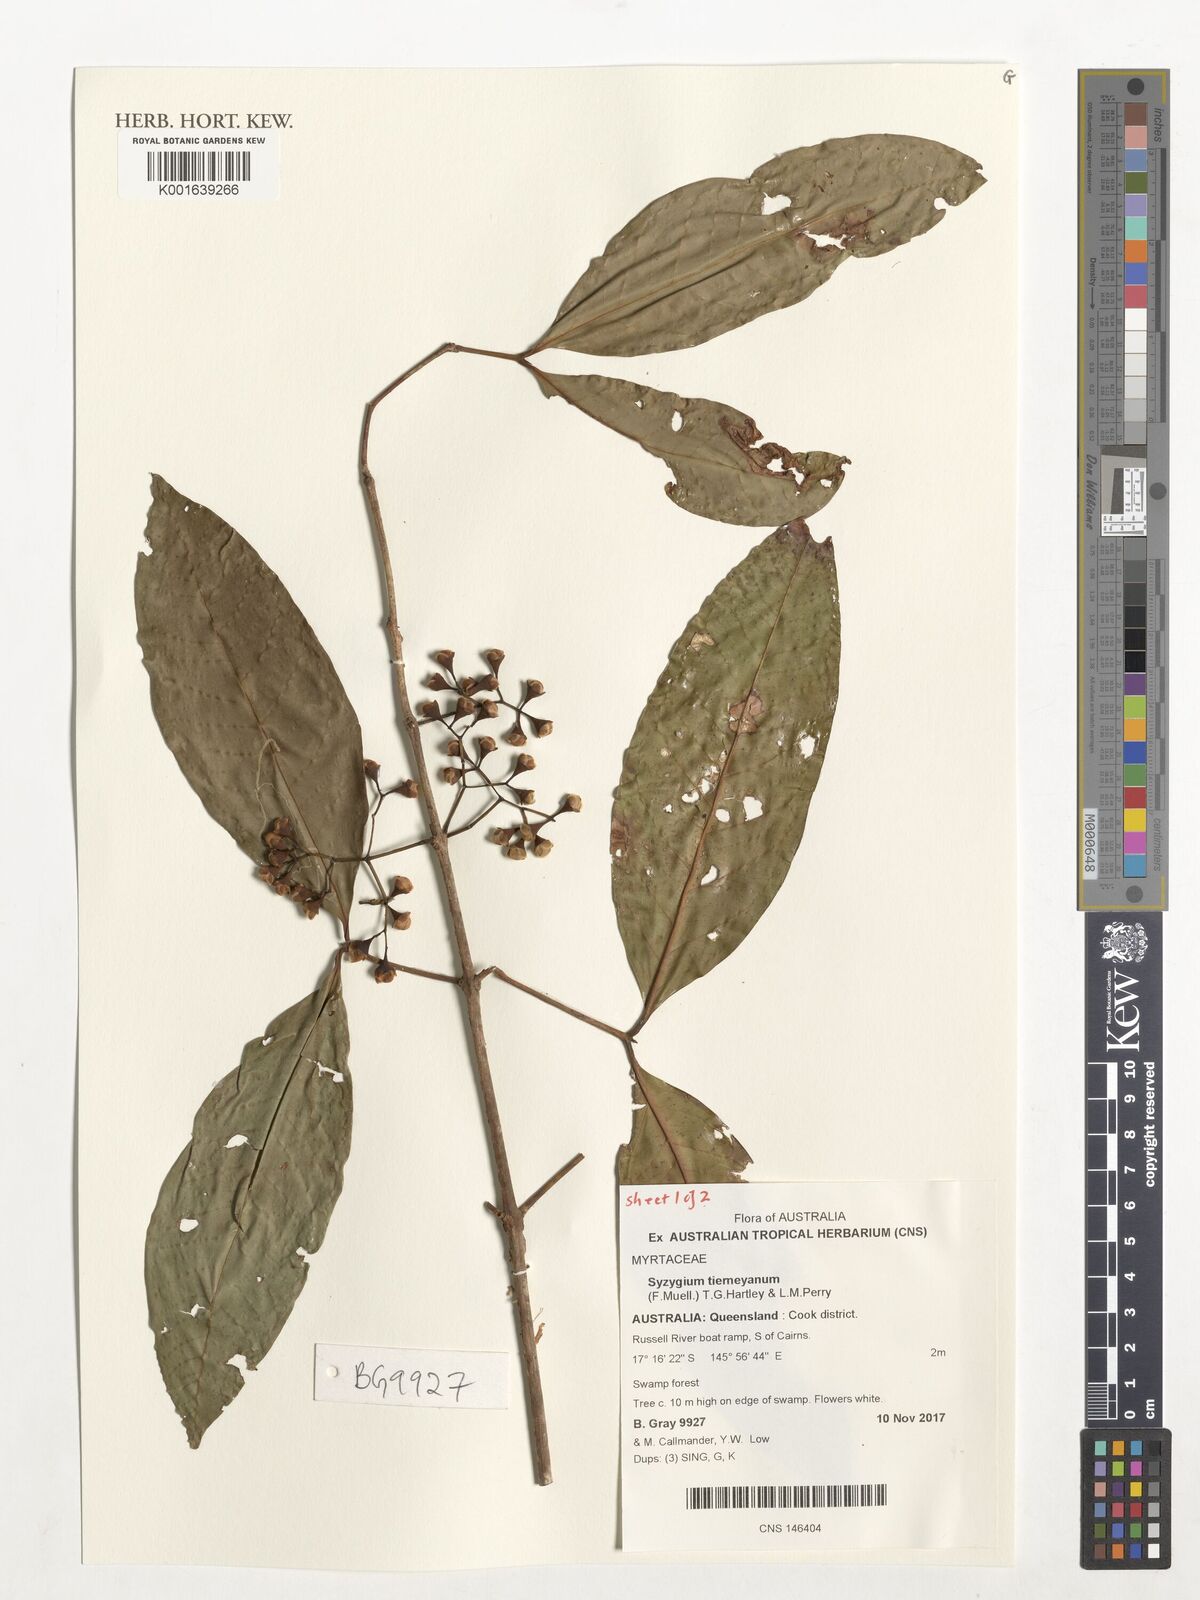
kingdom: Plantae
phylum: Tracheophyta
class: Magnoliopsida
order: Myrtales
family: Myrtaceae
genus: Syzygium
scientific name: Syzygium tierneyanum
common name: River-cherry
